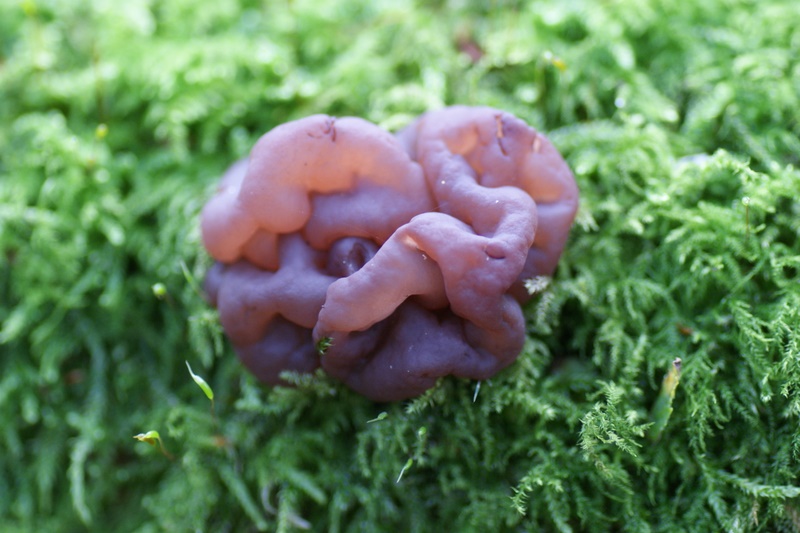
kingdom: Fungi
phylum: Ascomycota
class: Leotiomycetes
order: Helotiales
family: Gelatinodiscaceae
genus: Ascotremella
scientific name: Ascotremella faginea
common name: hjerne-bævreskive
